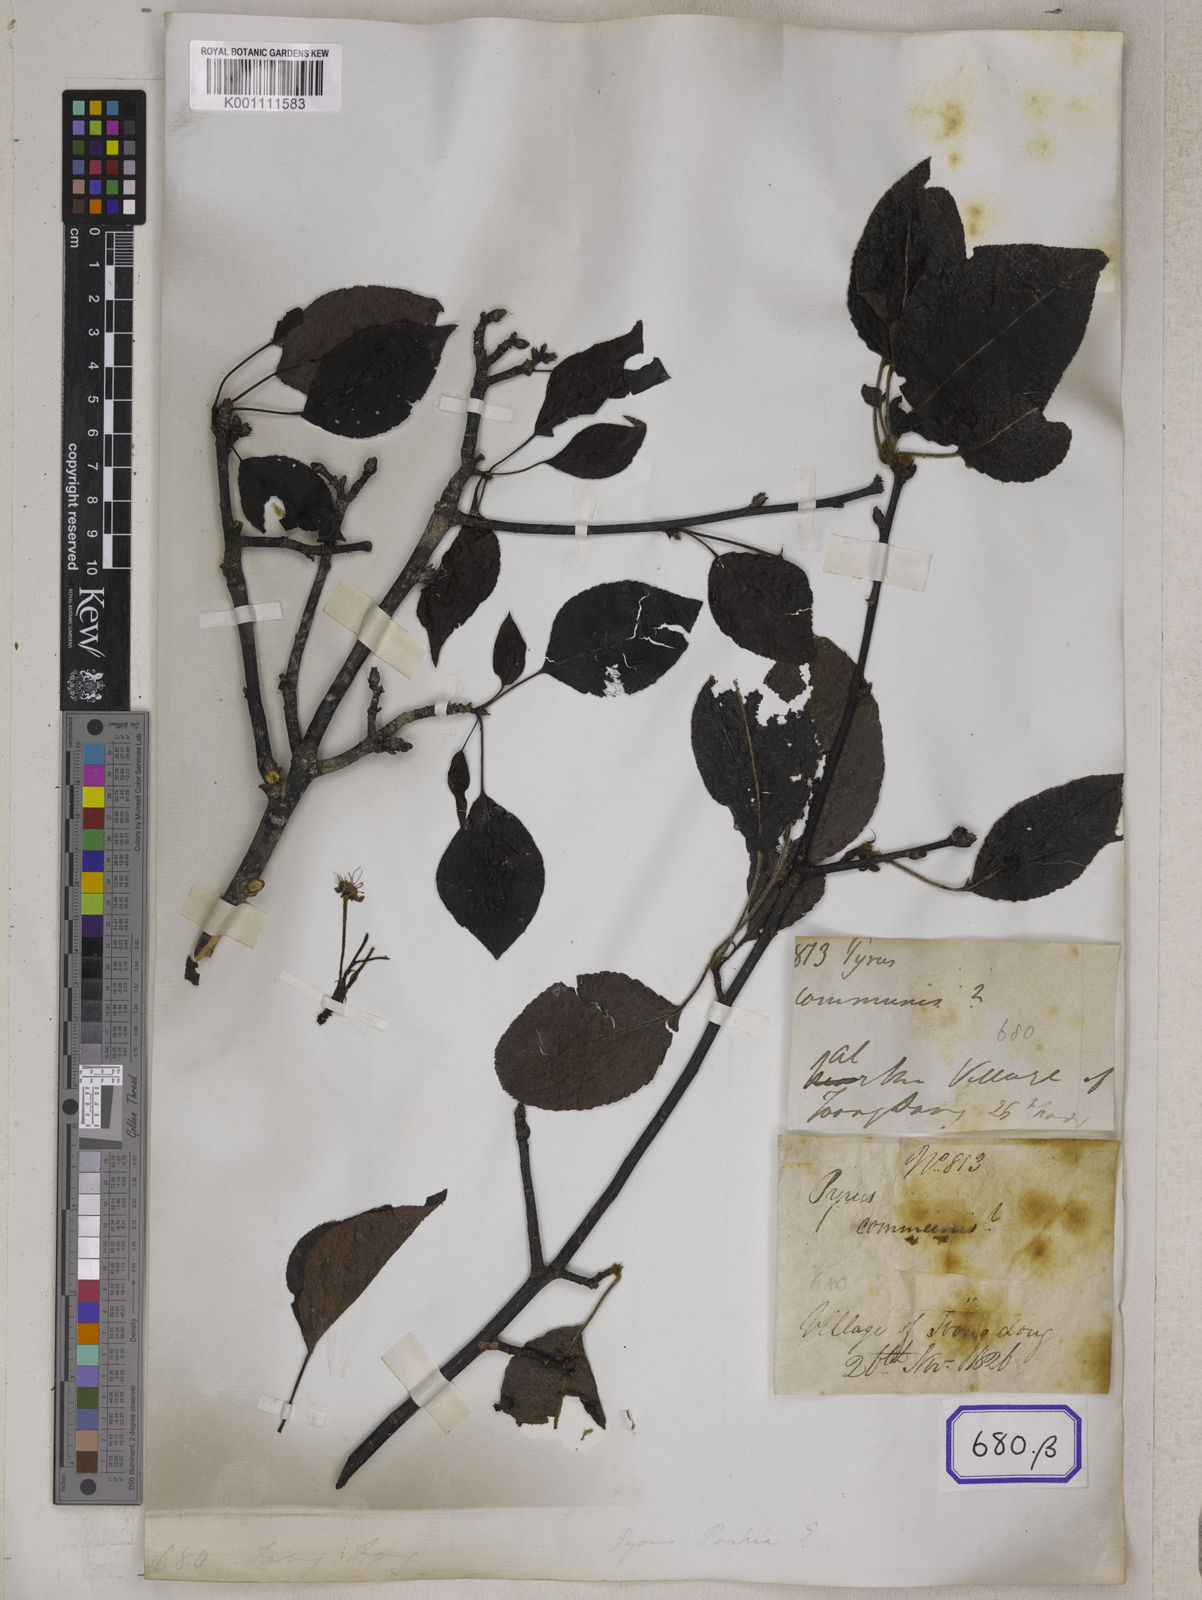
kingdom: Plantae
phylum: Tracheophyta
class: Magnoliopsida
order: Rosales
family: Rosaceae
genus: Pyrus
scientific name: Pyrus
